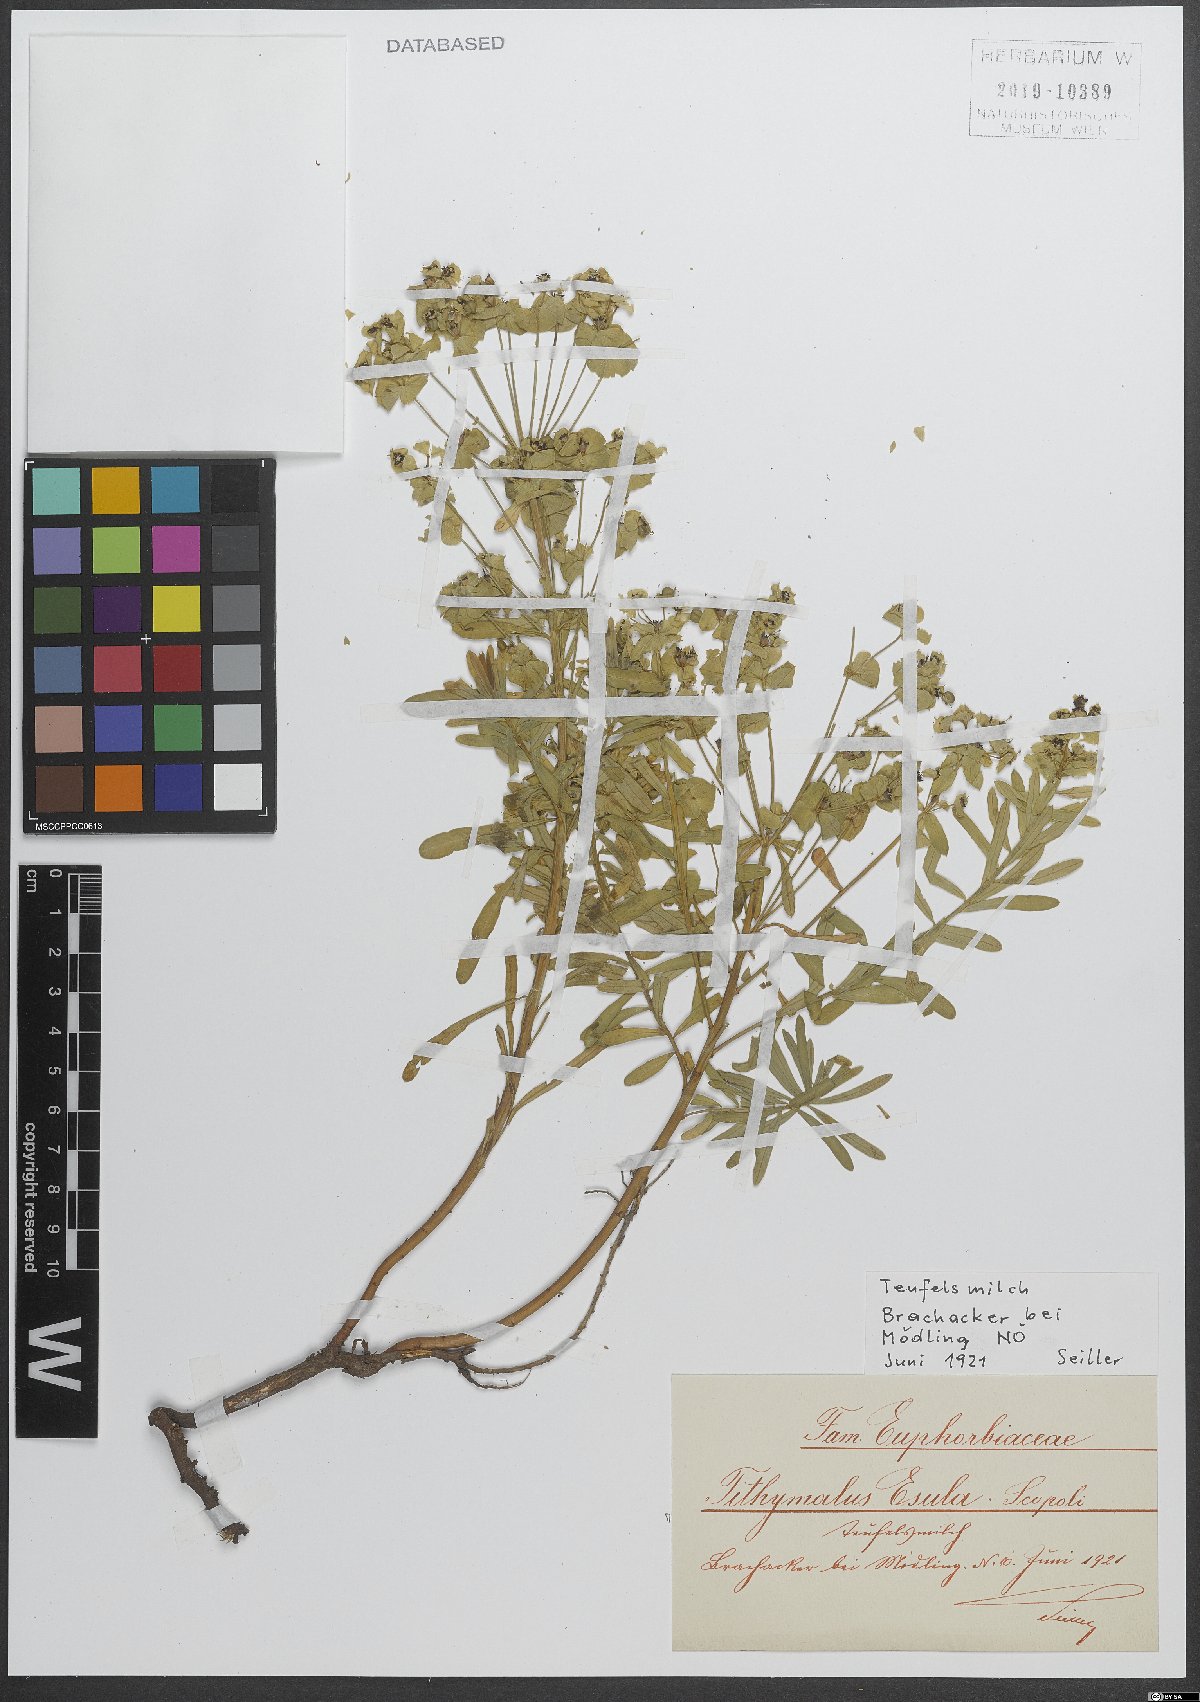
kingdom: Plantae
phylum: Tracheophyta
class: Magnoliopsida
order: Malpighiales
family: Euphorbiaceae
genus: Euphorbia
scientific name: Euphorbia esula
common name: Leafy spurge
